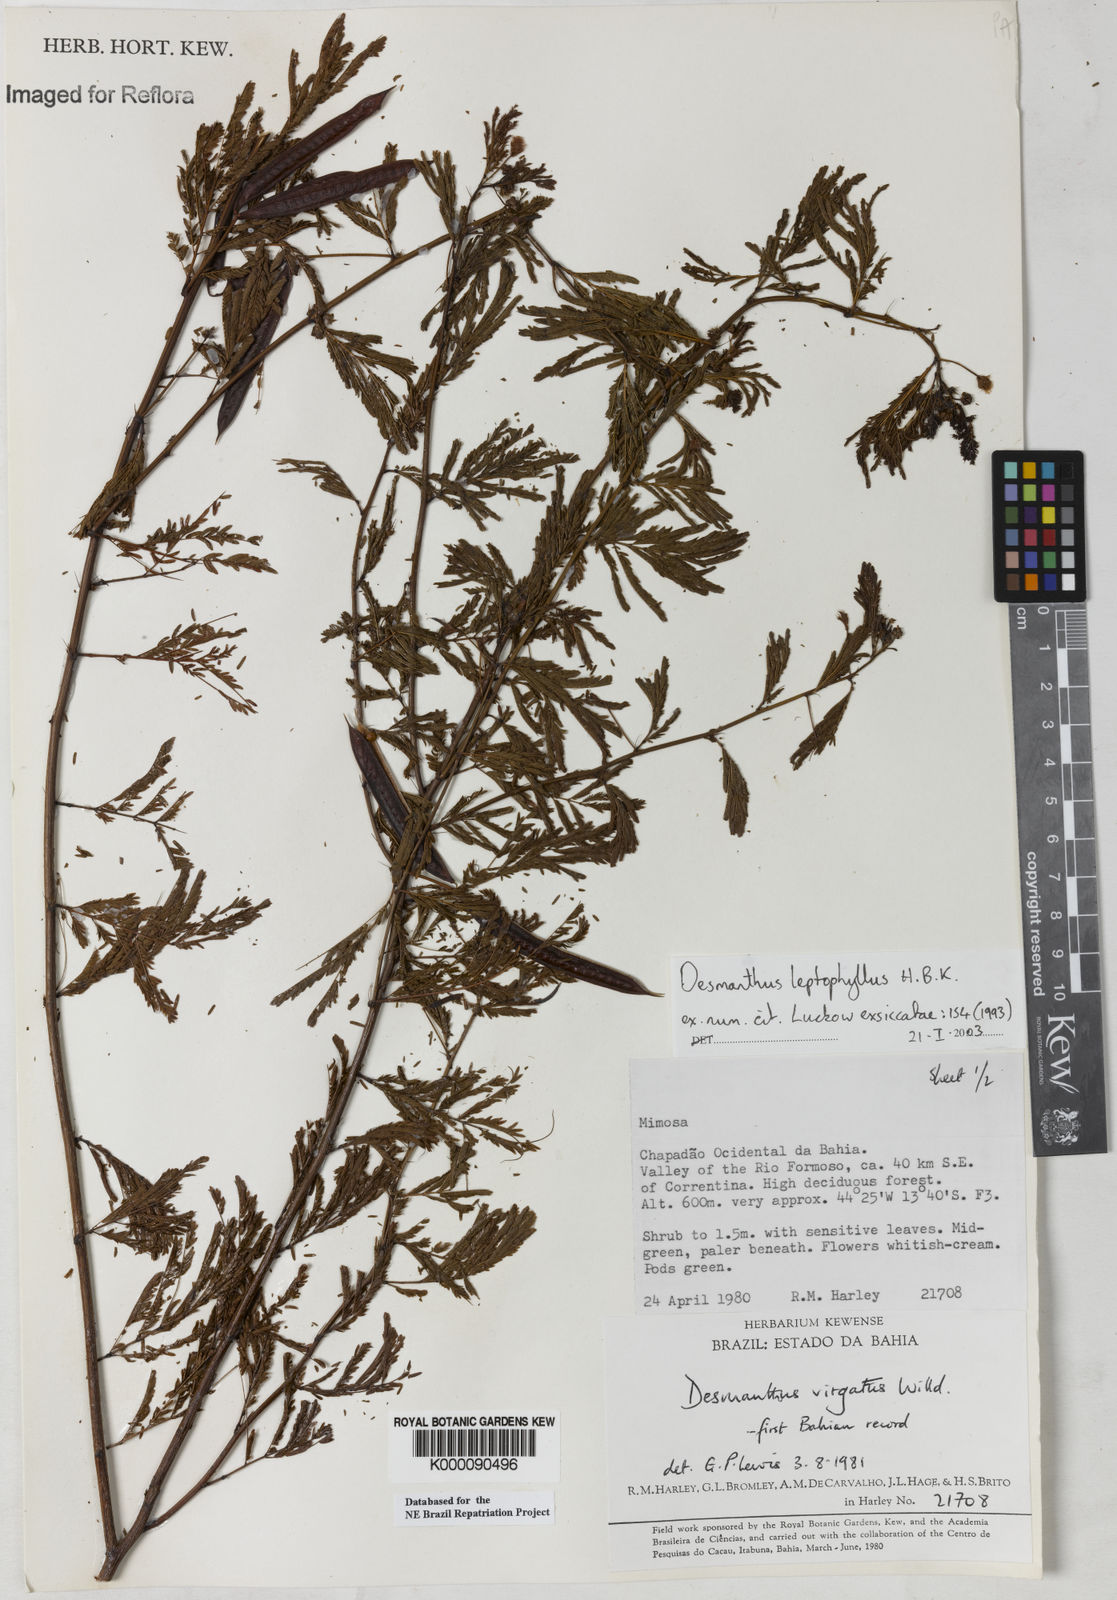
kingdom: Plantae
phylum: Tracheophyta
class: Magnoliopsida
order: Fabales
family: Fabaceae
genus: Desmanthus
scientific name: Desmanthus
